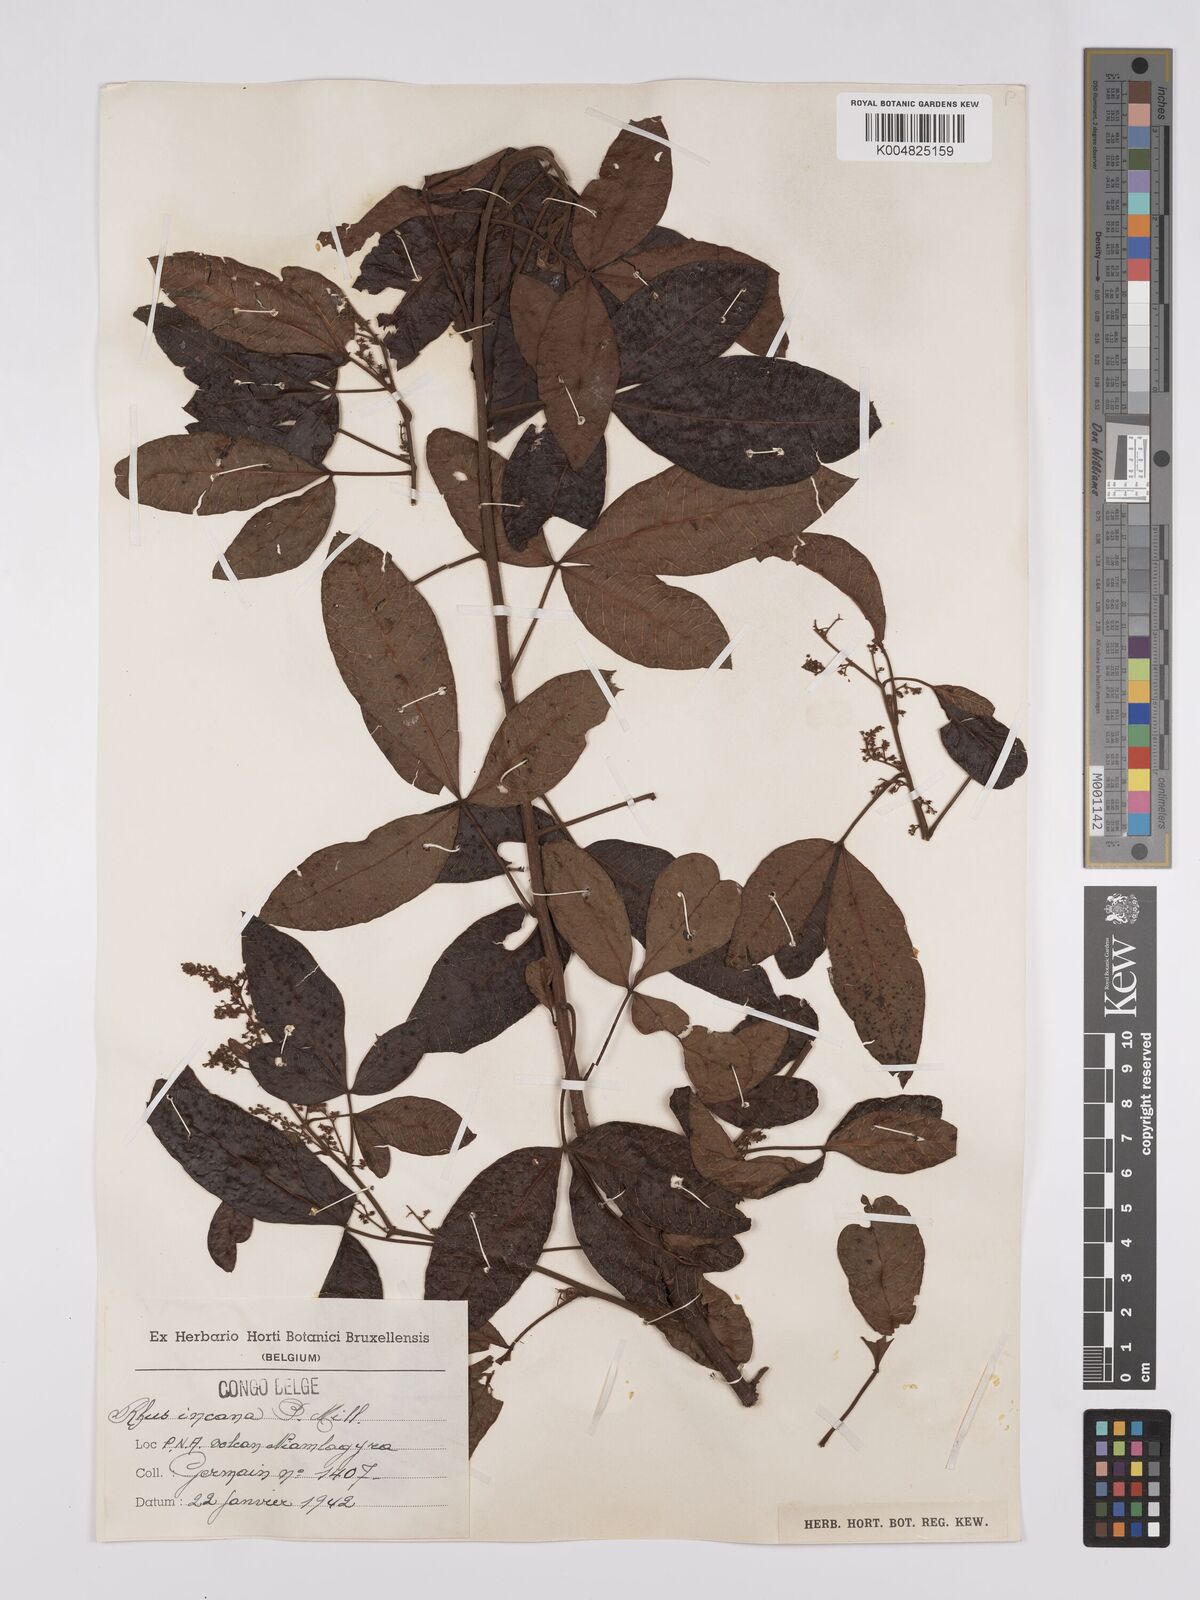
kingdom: Plantae
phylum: Tracheophyta
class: Magnoliopsida
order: Sapindales
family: Anacardiaceae
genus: Searsia
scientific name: Searsia longipes
